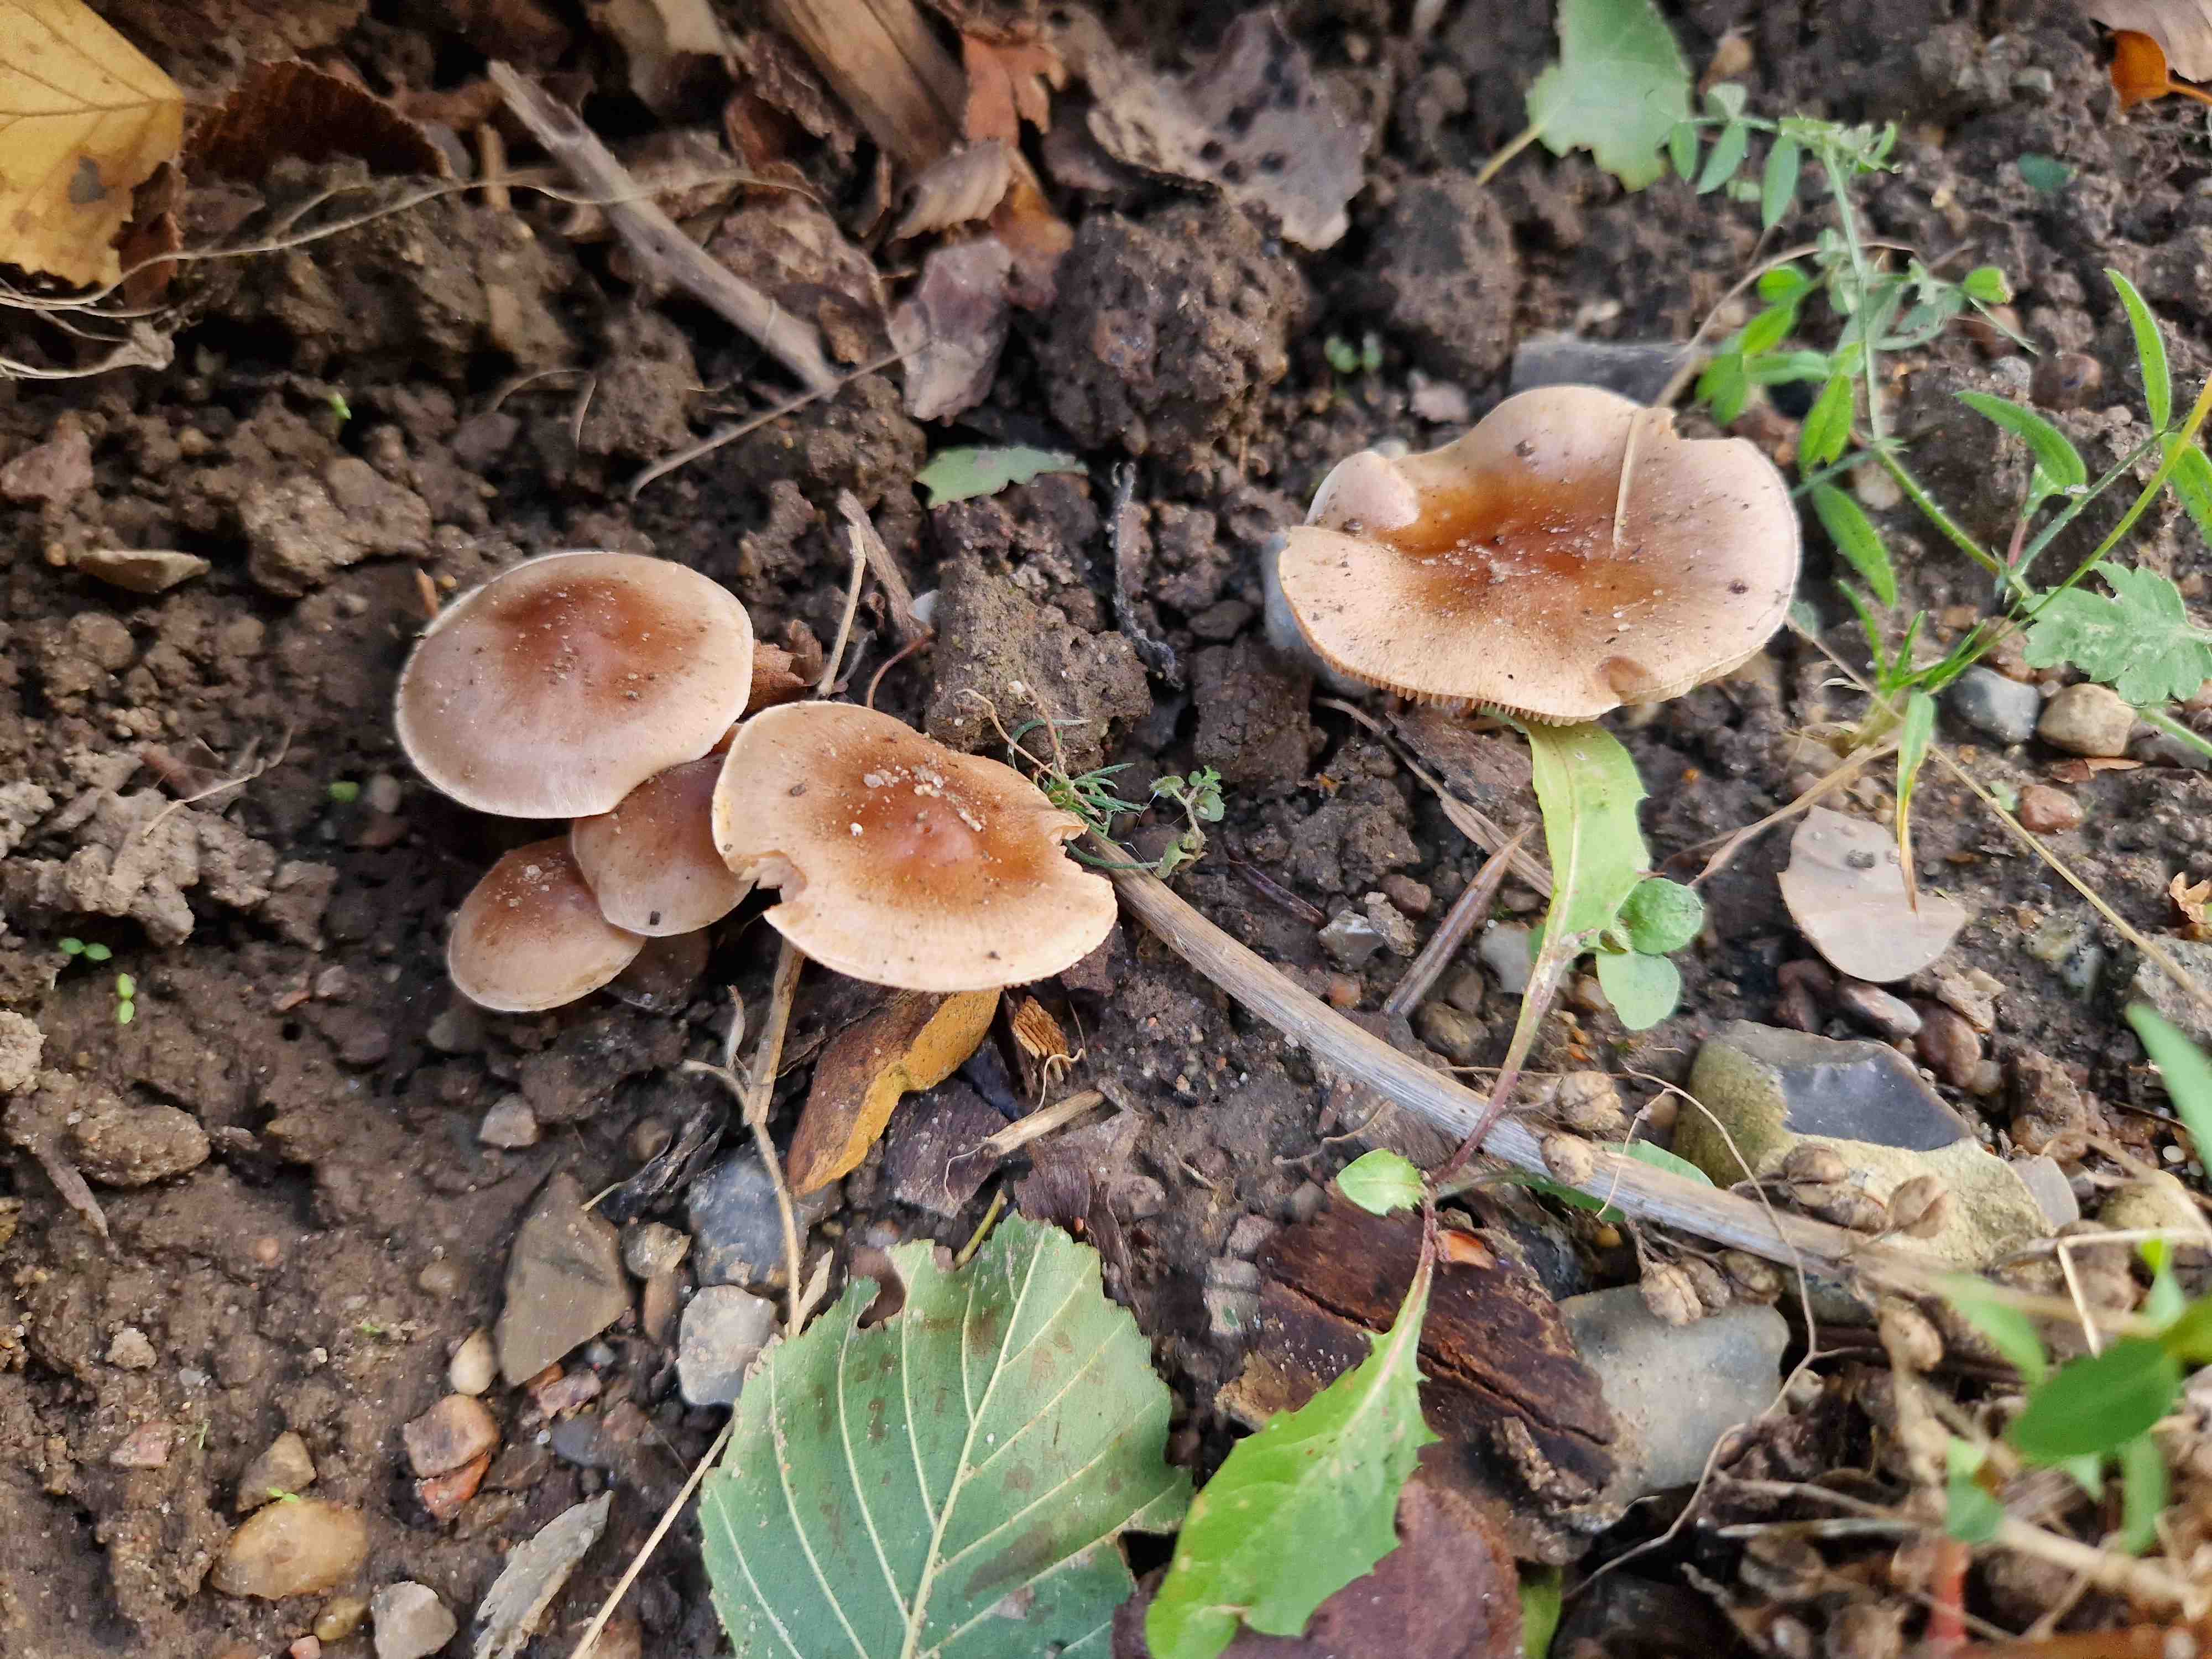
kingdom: Fungi
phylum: Basidiomycota
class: Agaricomycetes
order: Agaricales
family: Hymenogastraceae
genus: Hebeloma
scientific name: Hebeloma mesophaeum
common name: lerbrun tåreblad
